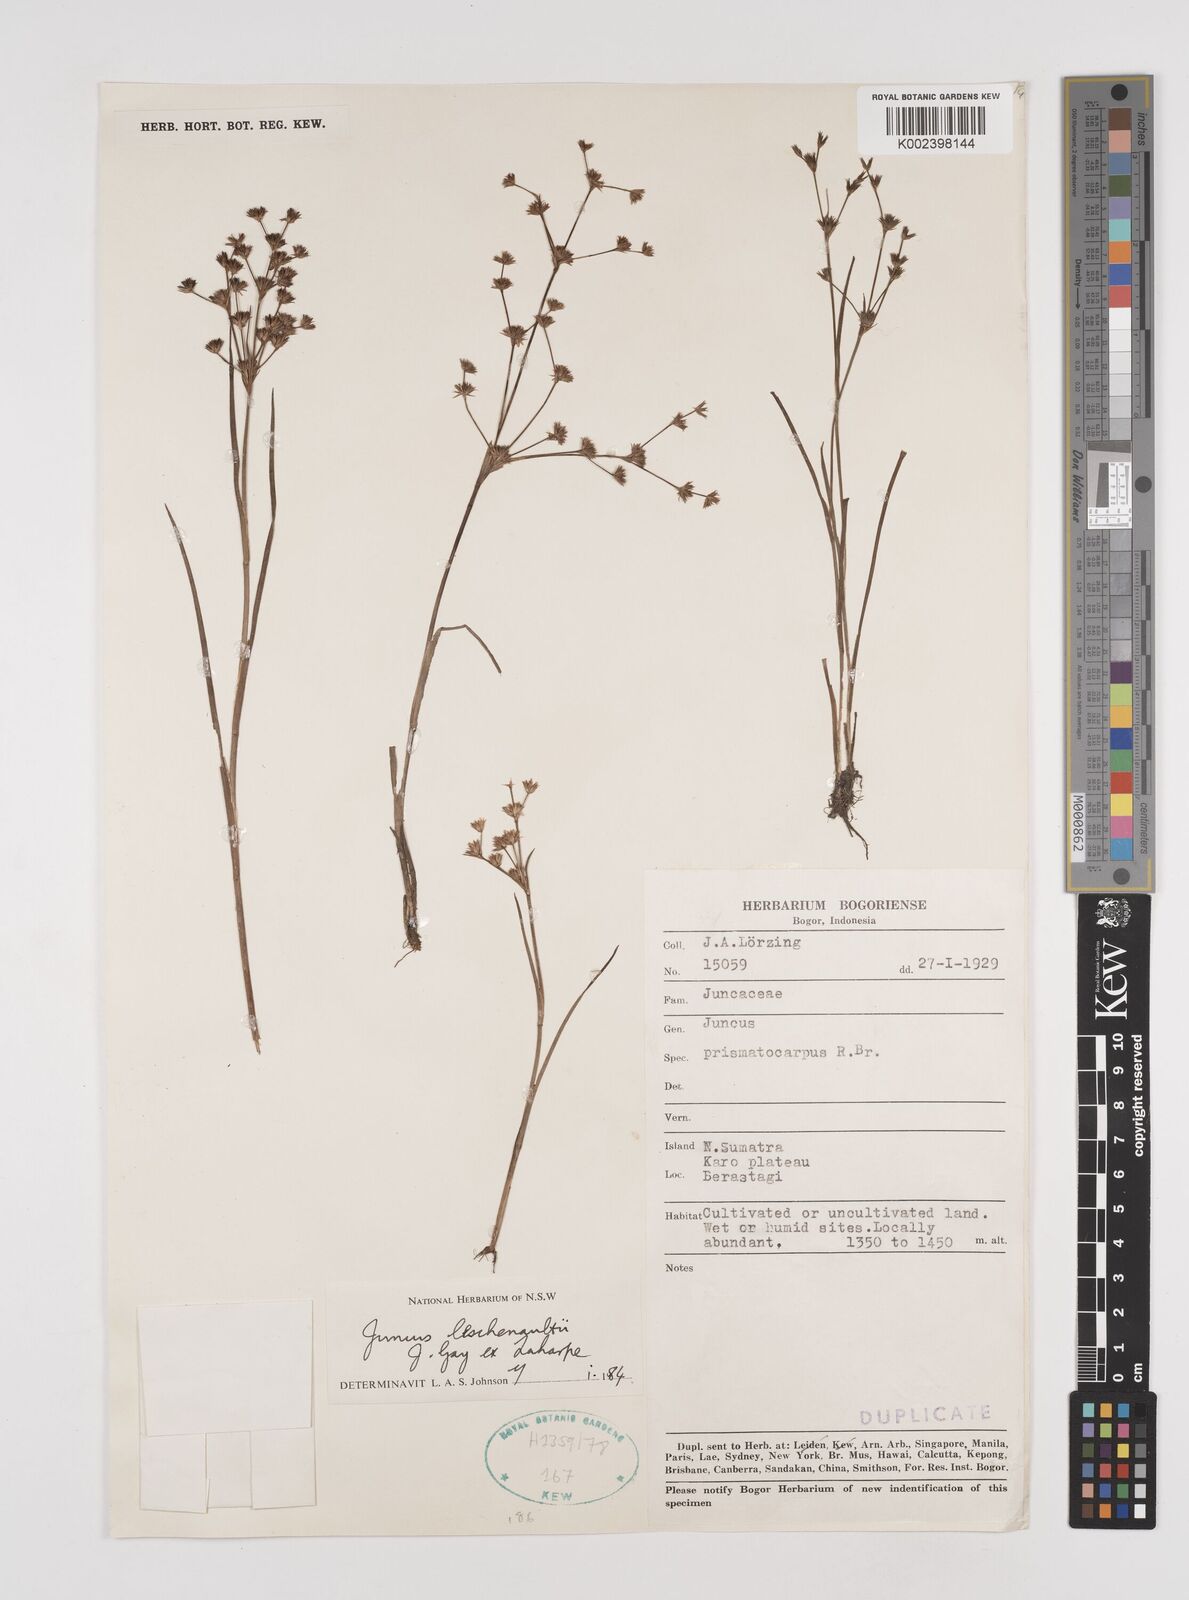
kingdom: Plantae
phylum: Tracheophyta
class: Liliopsida
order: Poales
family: Juncaceae
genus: Juncus
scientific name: Juncus prismatocarpus
